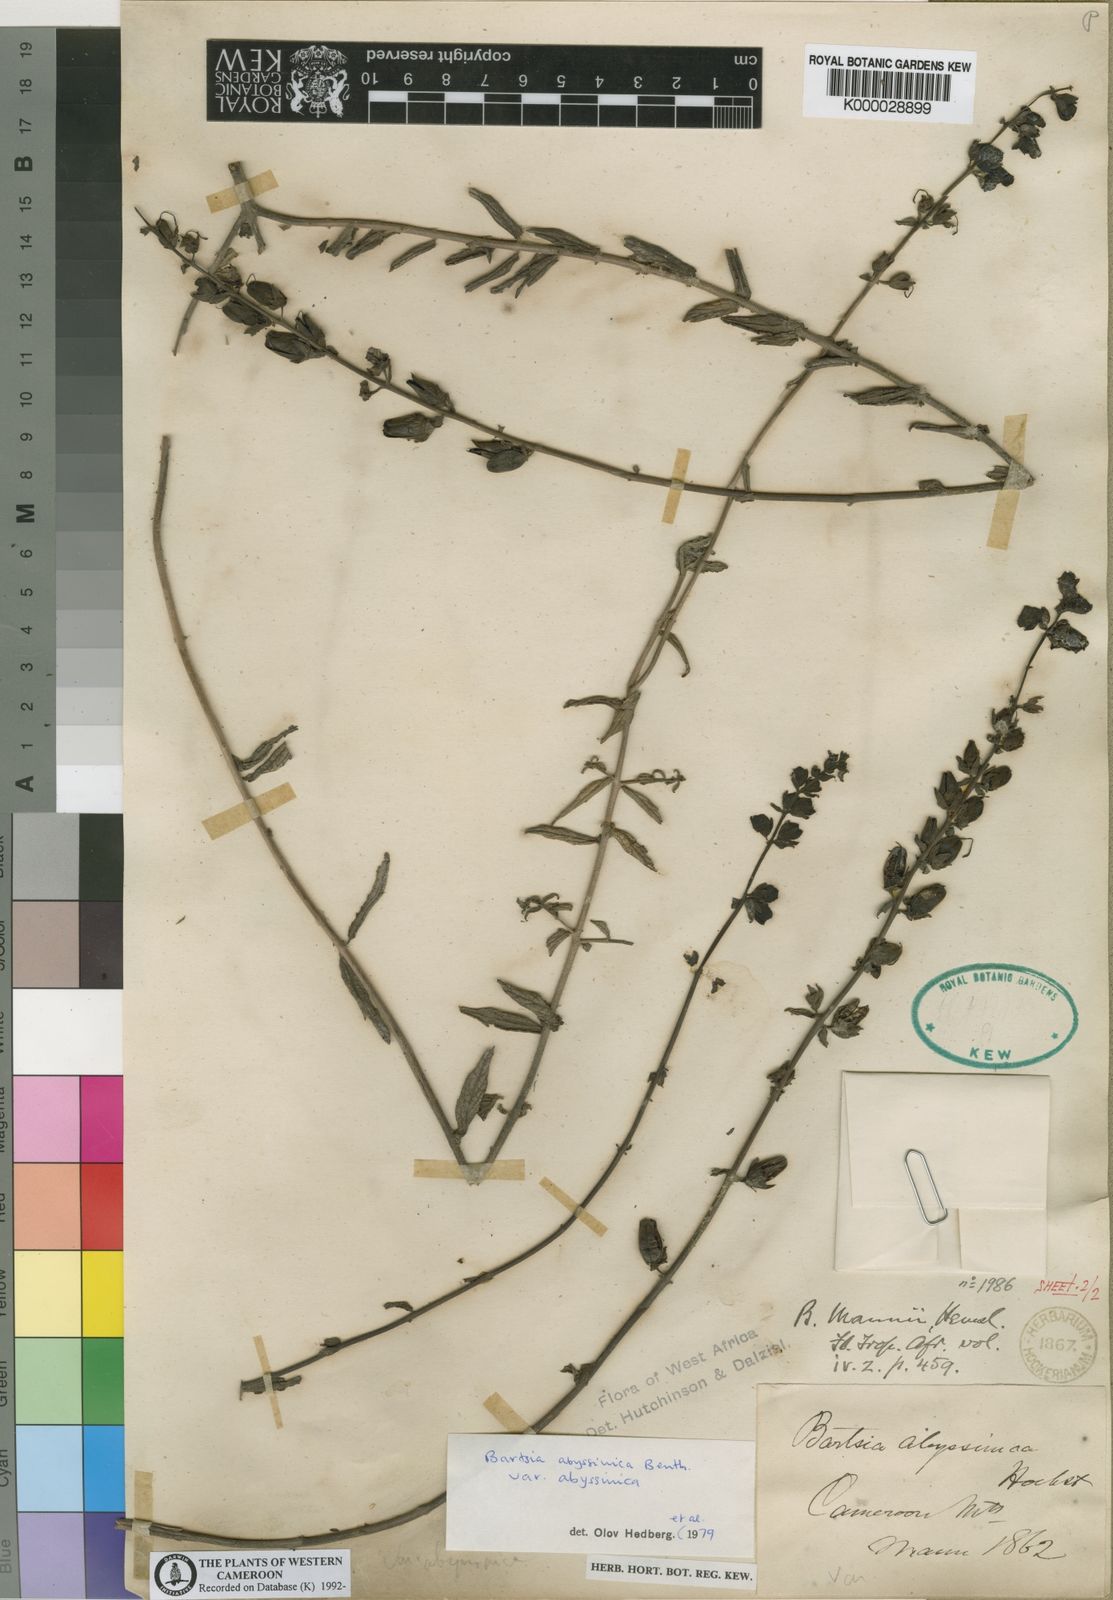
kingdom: Plantae
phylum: Tracheophyta
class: Magnoliopsida
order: Lamiales
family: Orobanchaceae
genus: Hedbergia
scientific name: Hedbergia abyssinica
